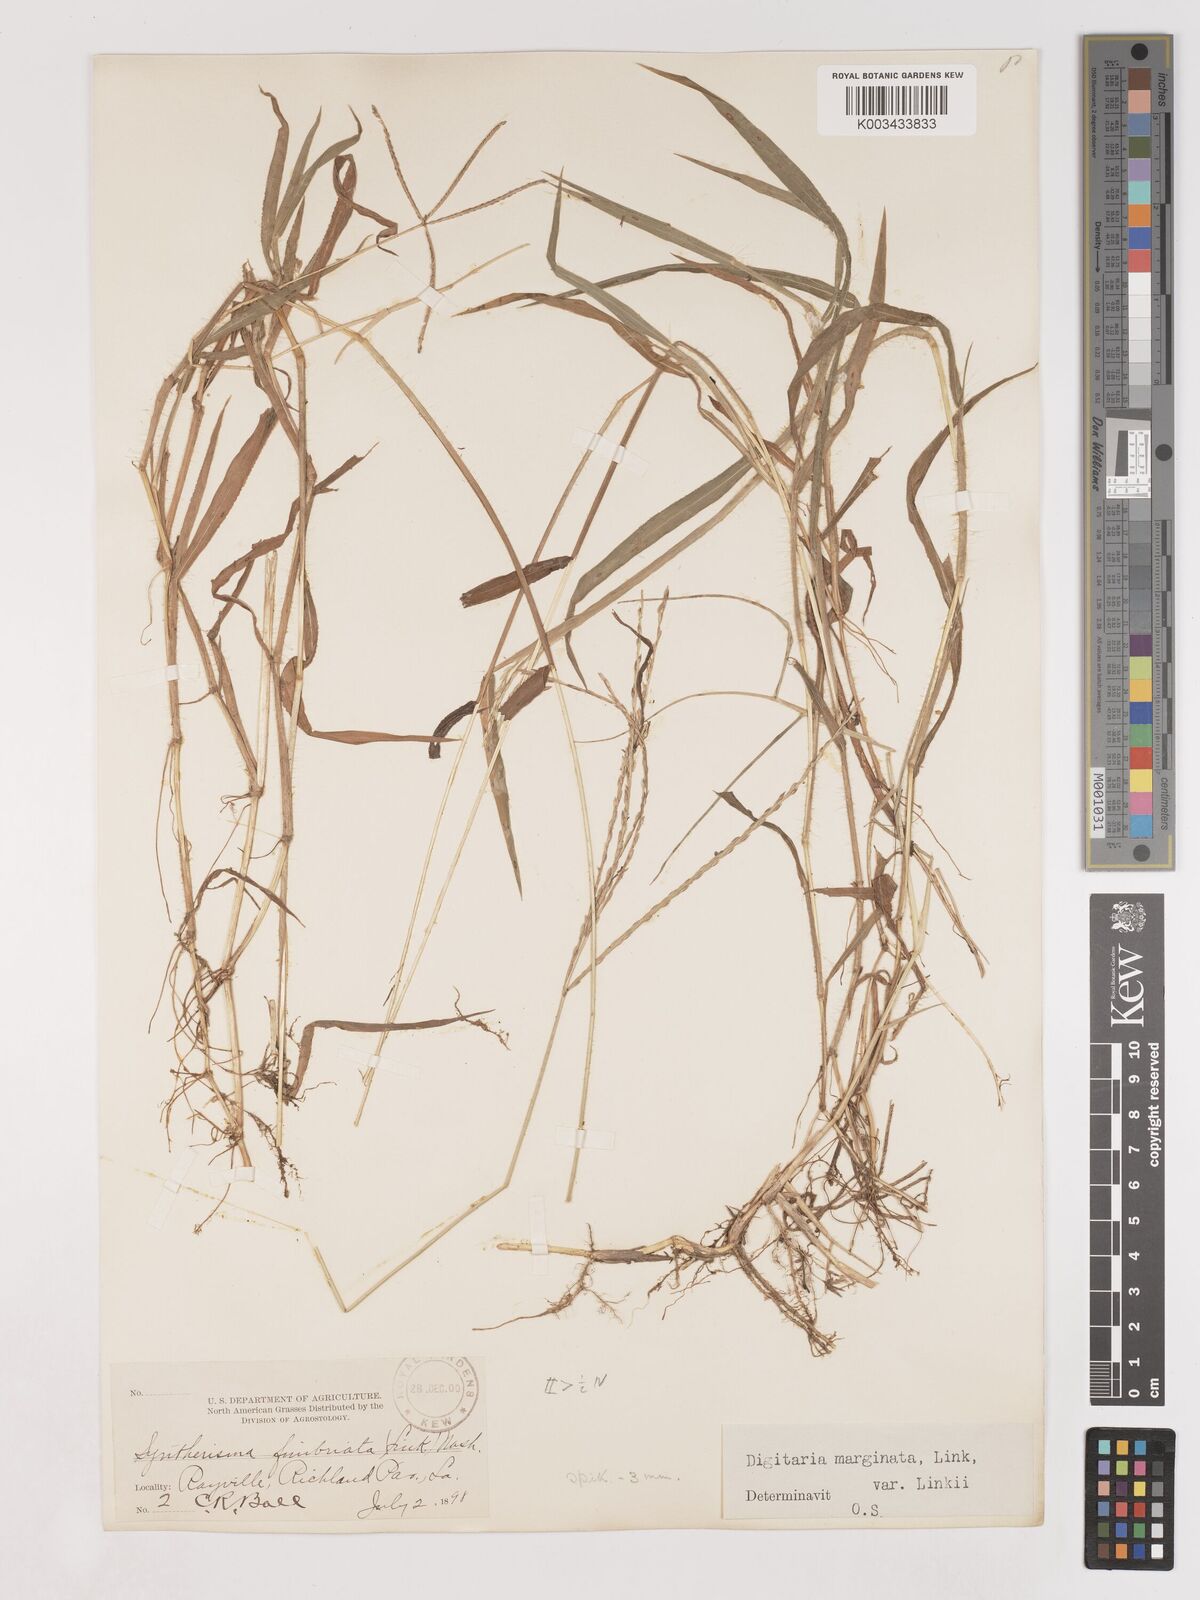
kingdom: Plantae
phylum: Tracheophyta
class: Liliopsida
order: Poales
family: Poaceae
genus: Digitaria
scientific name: Digitaria ciliaris
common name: Tropical finger-grass
